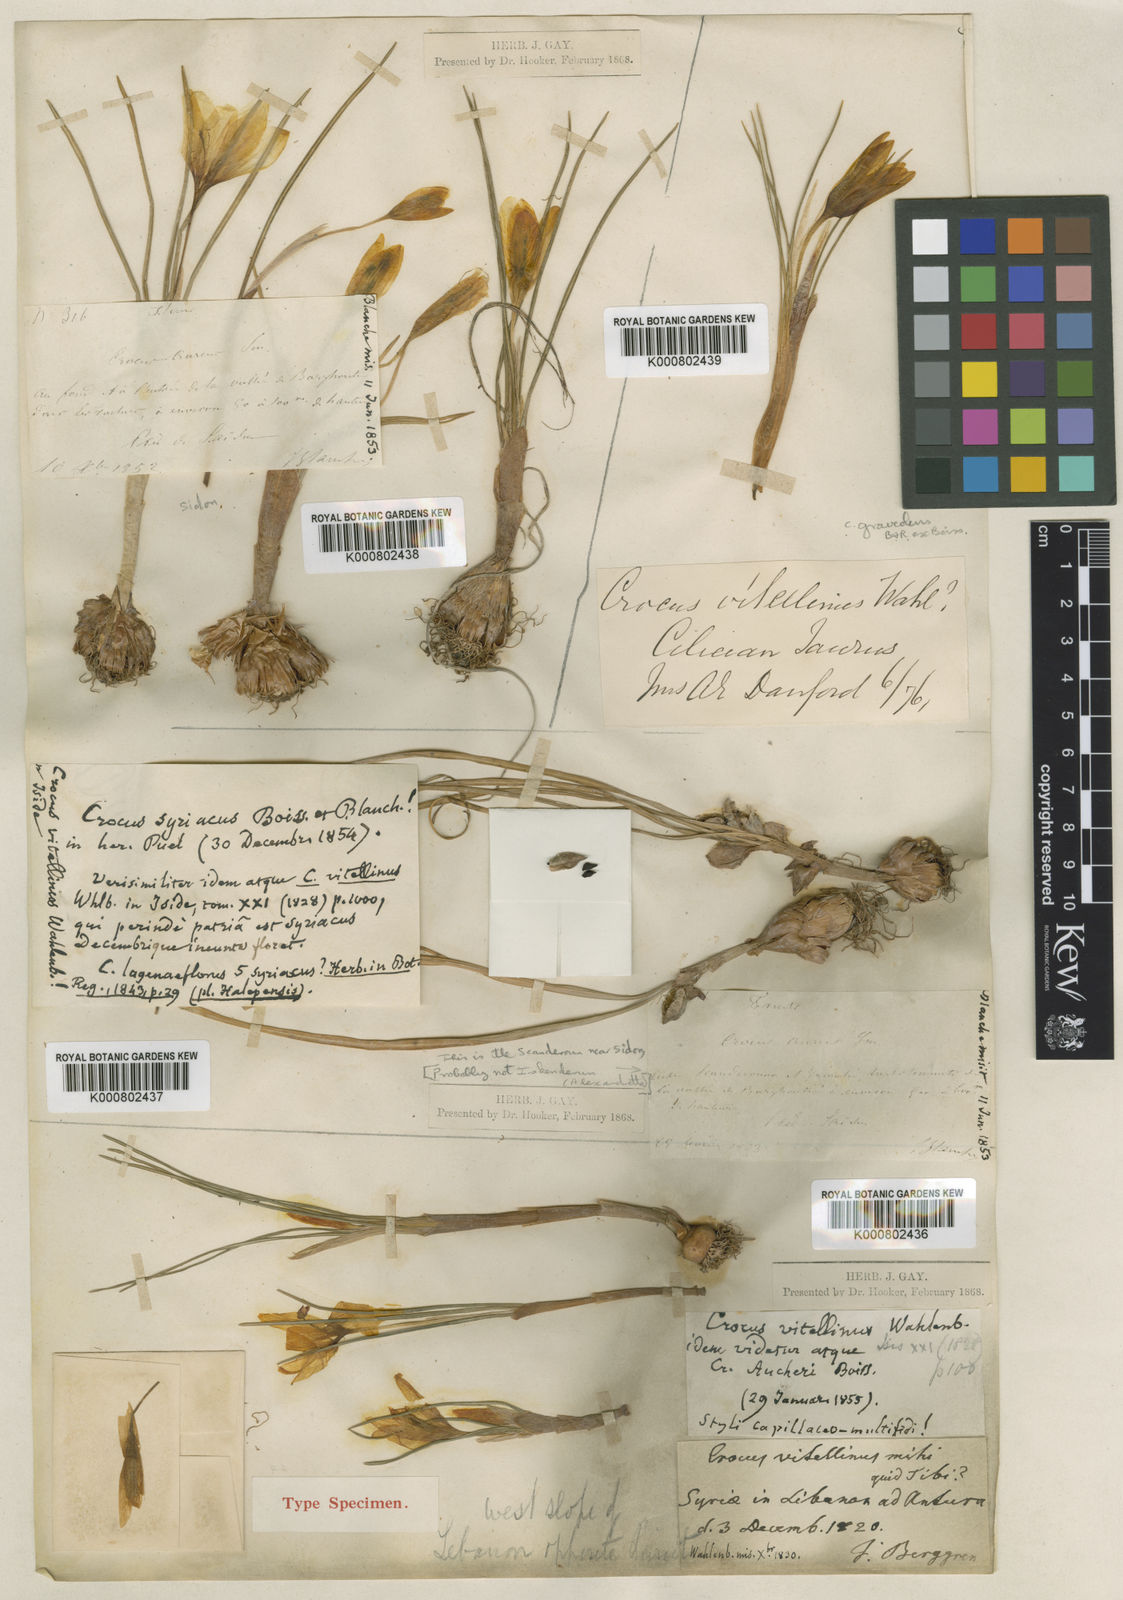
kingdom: Plantae
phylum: Tracheophyta
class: Liliopsida
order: Asparagales
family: Iridaceae
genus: Crocus
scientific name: Crocus vitellinus
